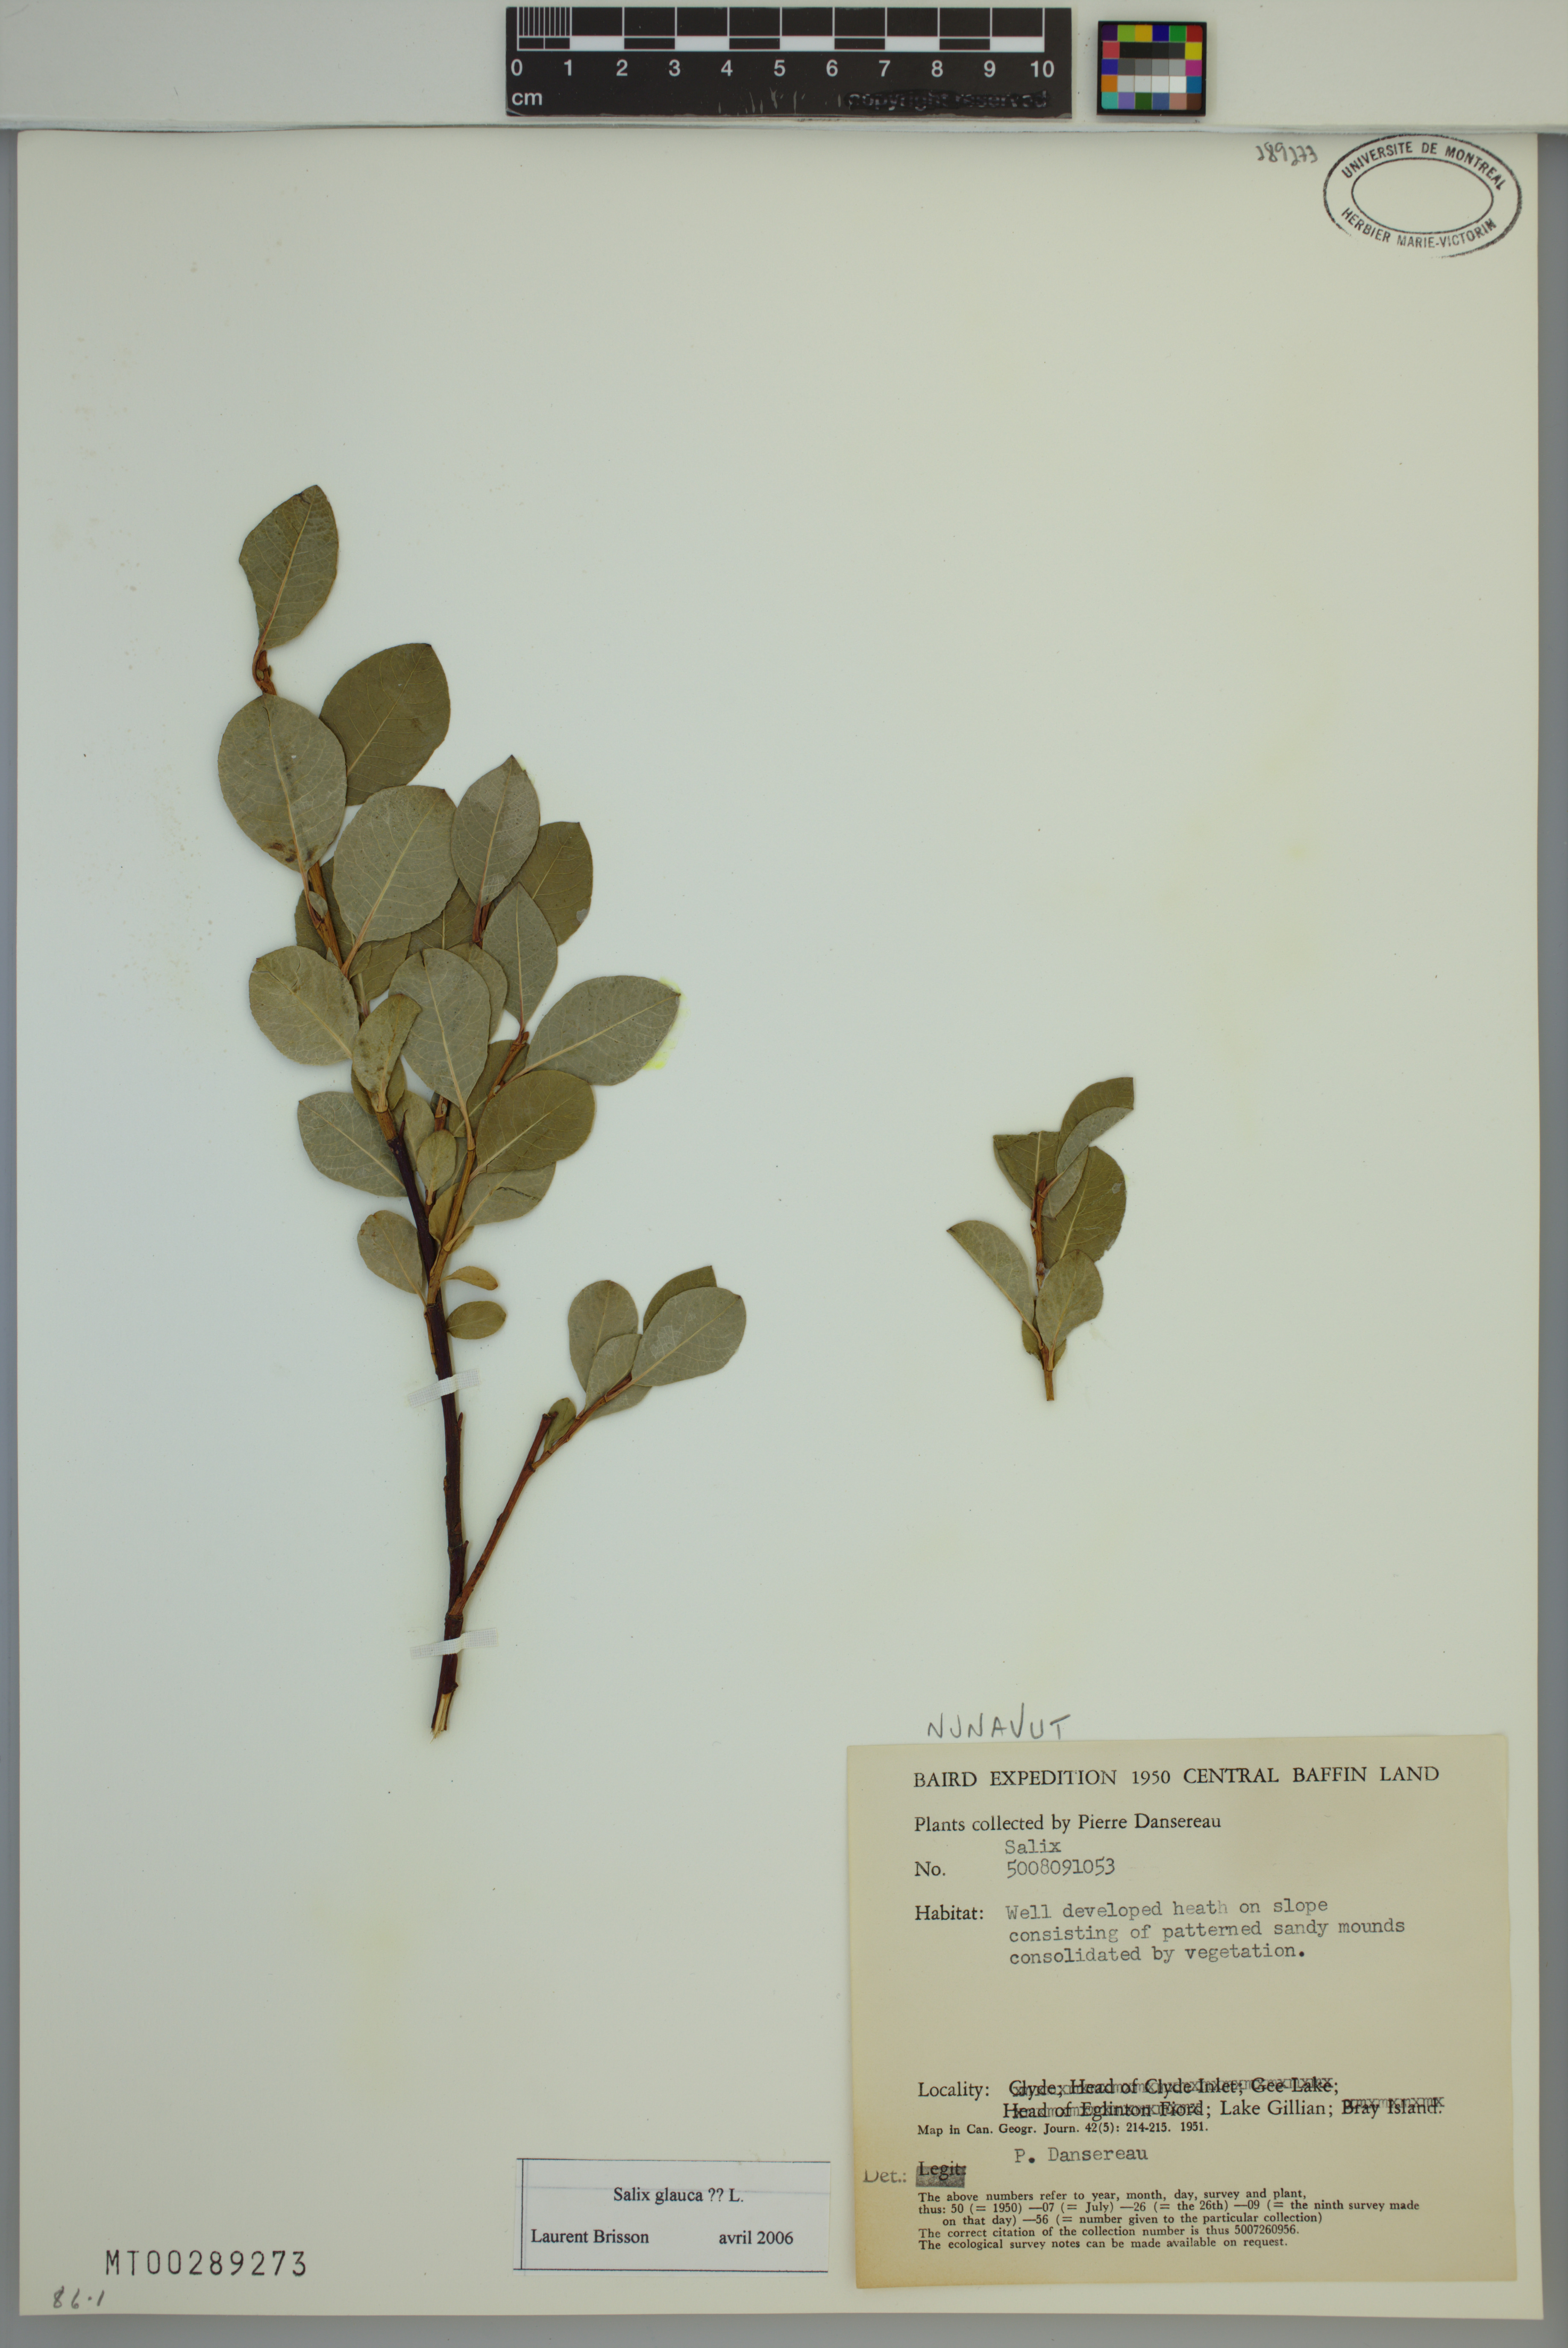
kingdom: Plantae
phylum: Tracheophyta
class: Magnoliopsida
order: Malpighiales
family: Salicaceae
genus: Salix
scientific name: Salix glauca
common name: Glaucous willow
